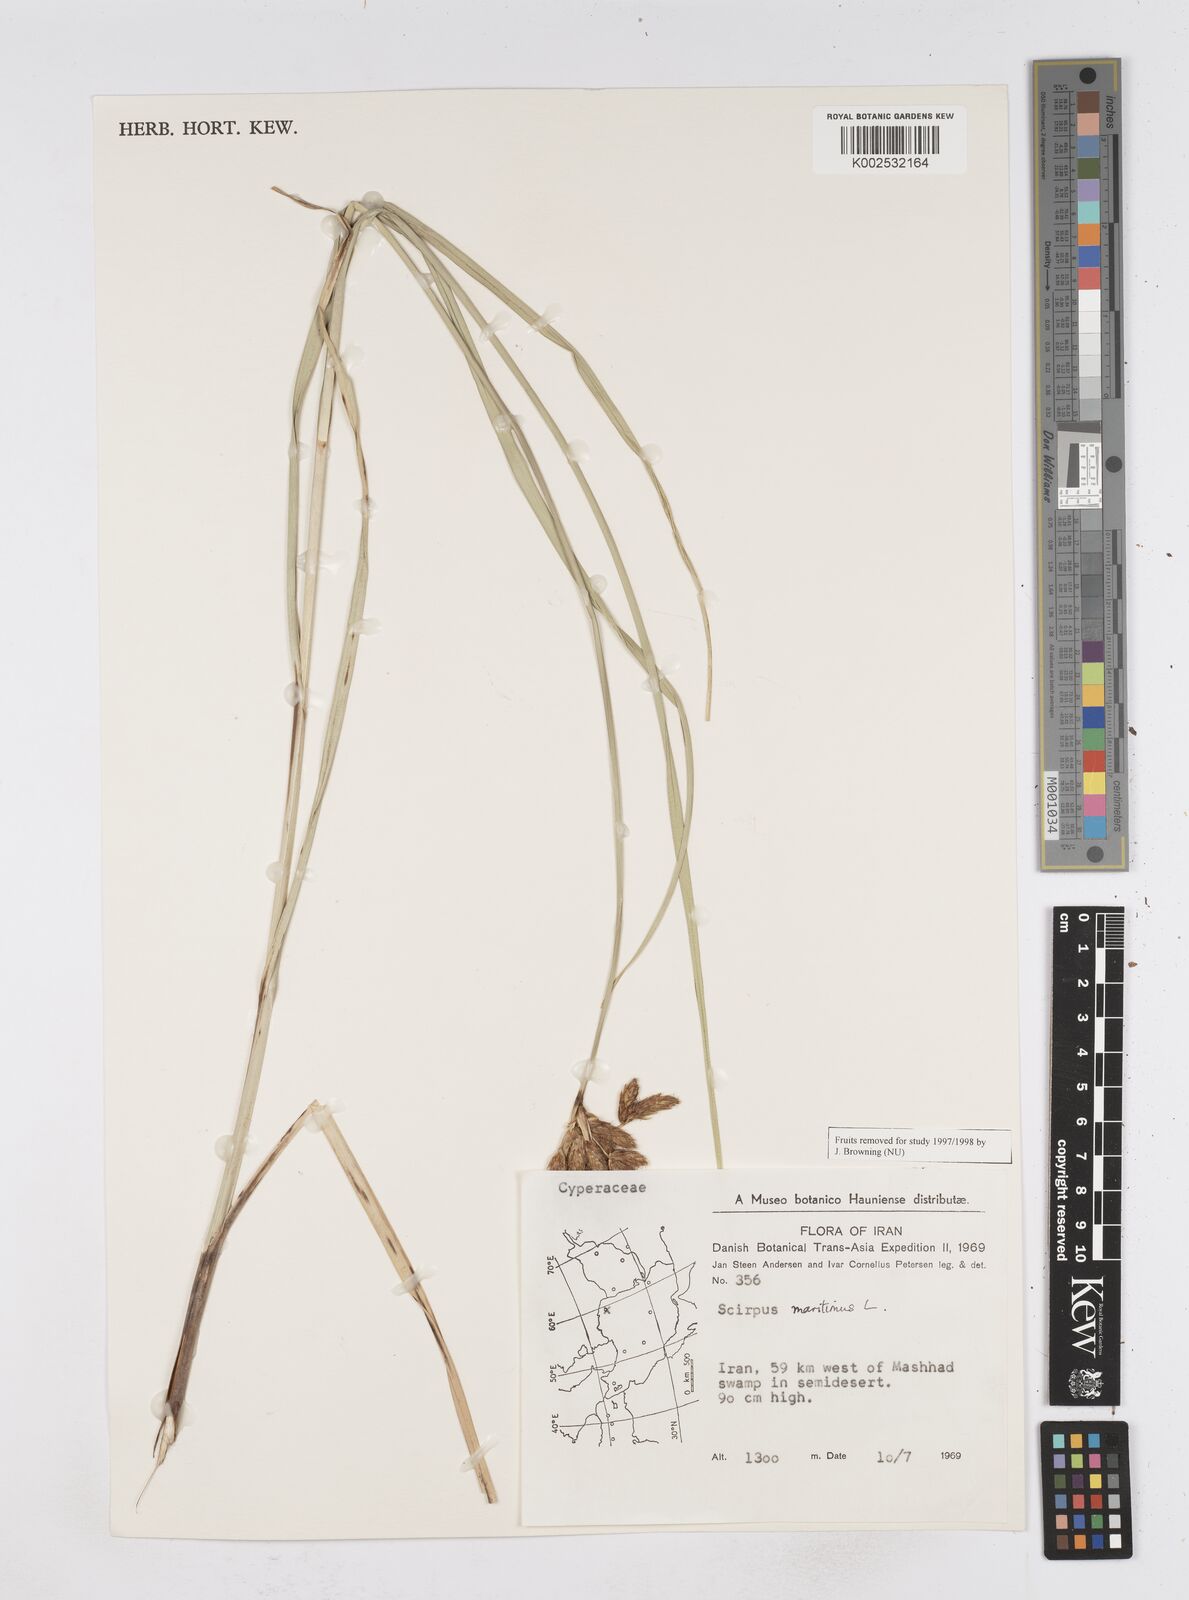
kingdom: Plantae
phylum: Tracheophyta
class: Liliopsida
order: Poales
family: Cyperaceae
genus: Bolboschoenus
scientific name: Bolboschoenus maritimus
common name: Sea club-rush
